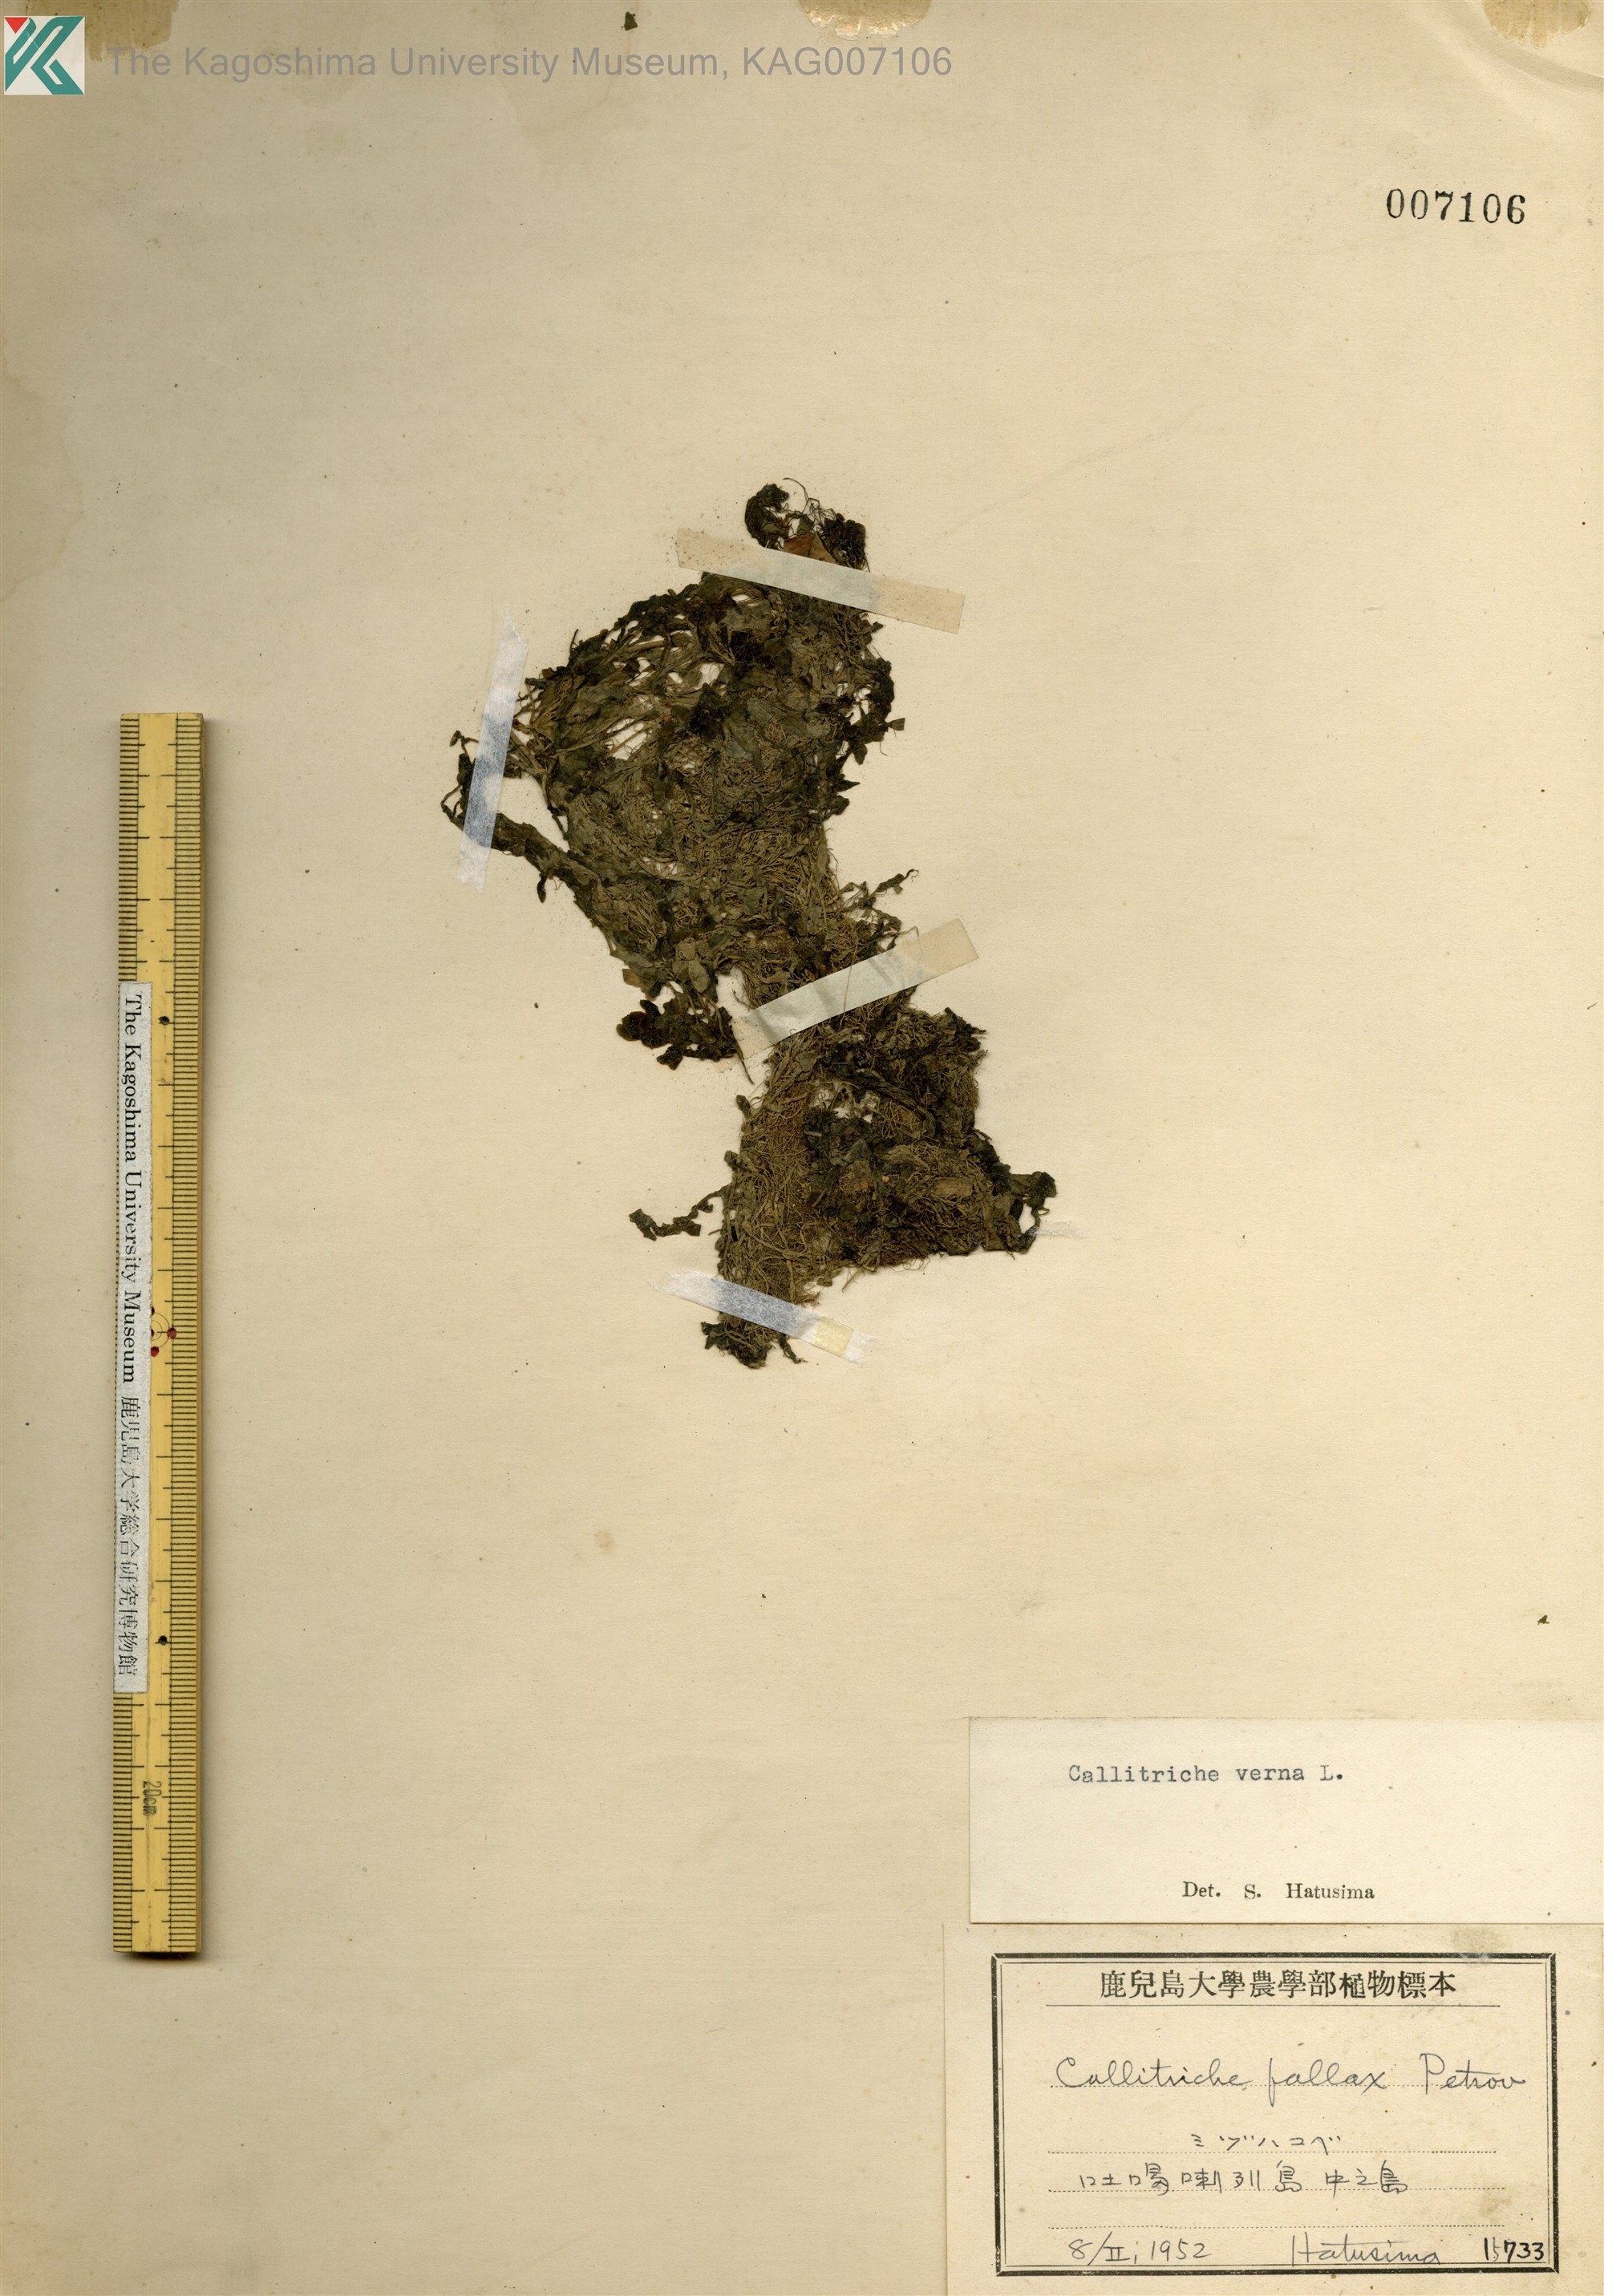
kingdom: Plantae
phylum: Tracheophyta
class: Magnoliopsida
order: Lamiales
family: Plantaginaceae
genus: Callitriche
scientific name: Callitriche palustris
